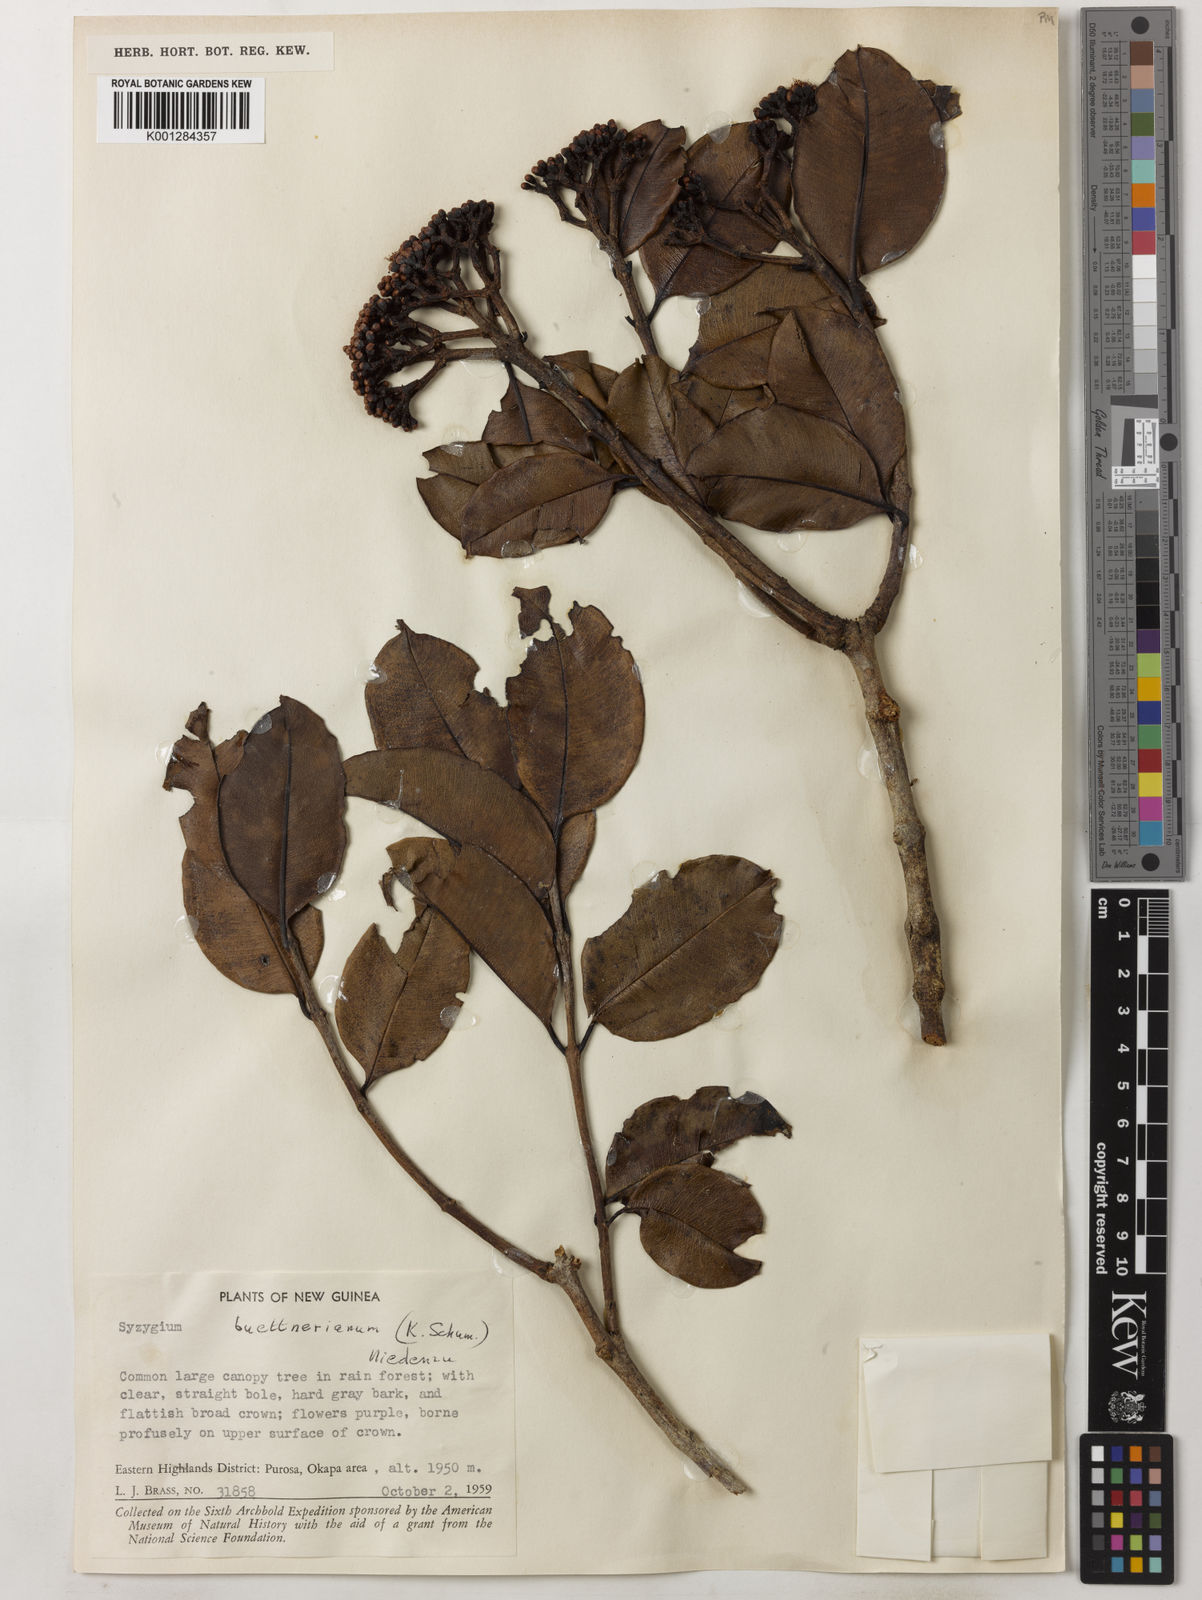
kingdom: Plantae
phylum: Tracheophyta
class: Magnoliopsida
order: Myrtales
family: Myrtaceae
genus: Syzygium
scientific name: Syzygium buettnerianum
